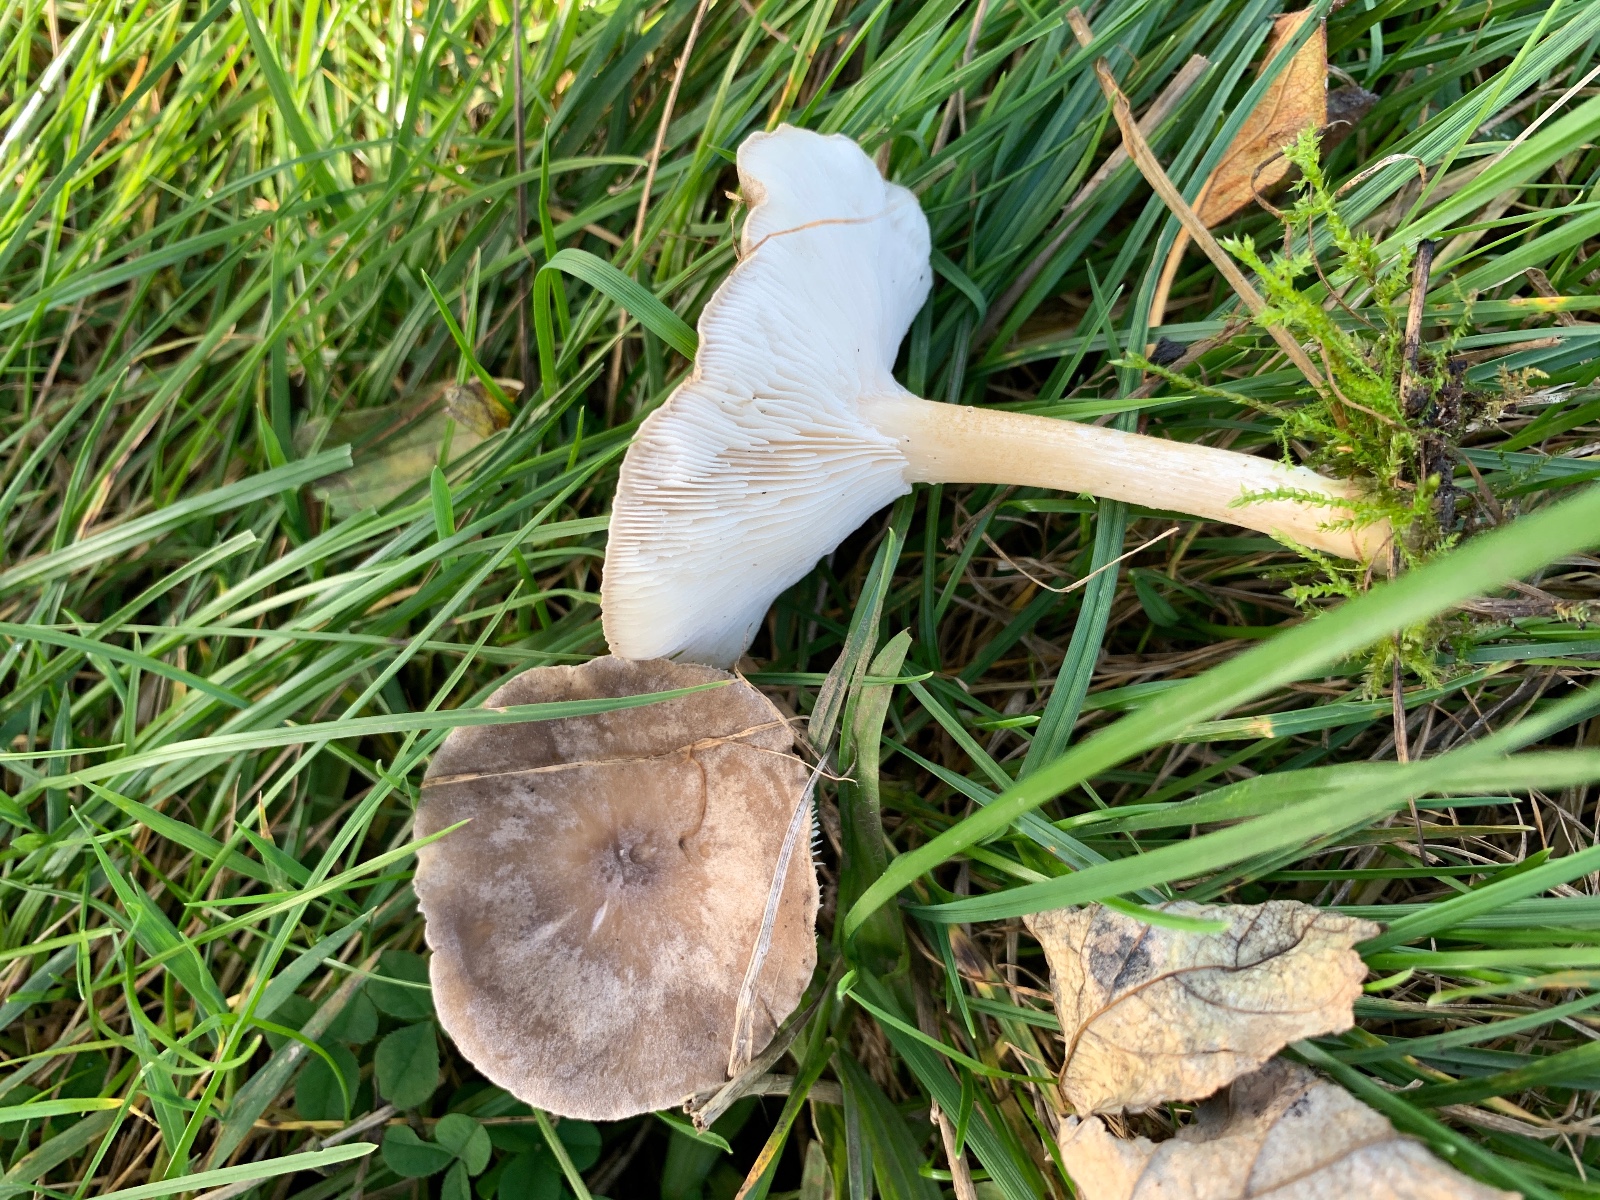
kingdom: Fungi
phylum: Basidiomycota
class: Agaricomycetes
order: Agaricales
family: Tricholomataceae
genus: Melanoleuca
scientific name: Melanoleuca
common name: munkehat
